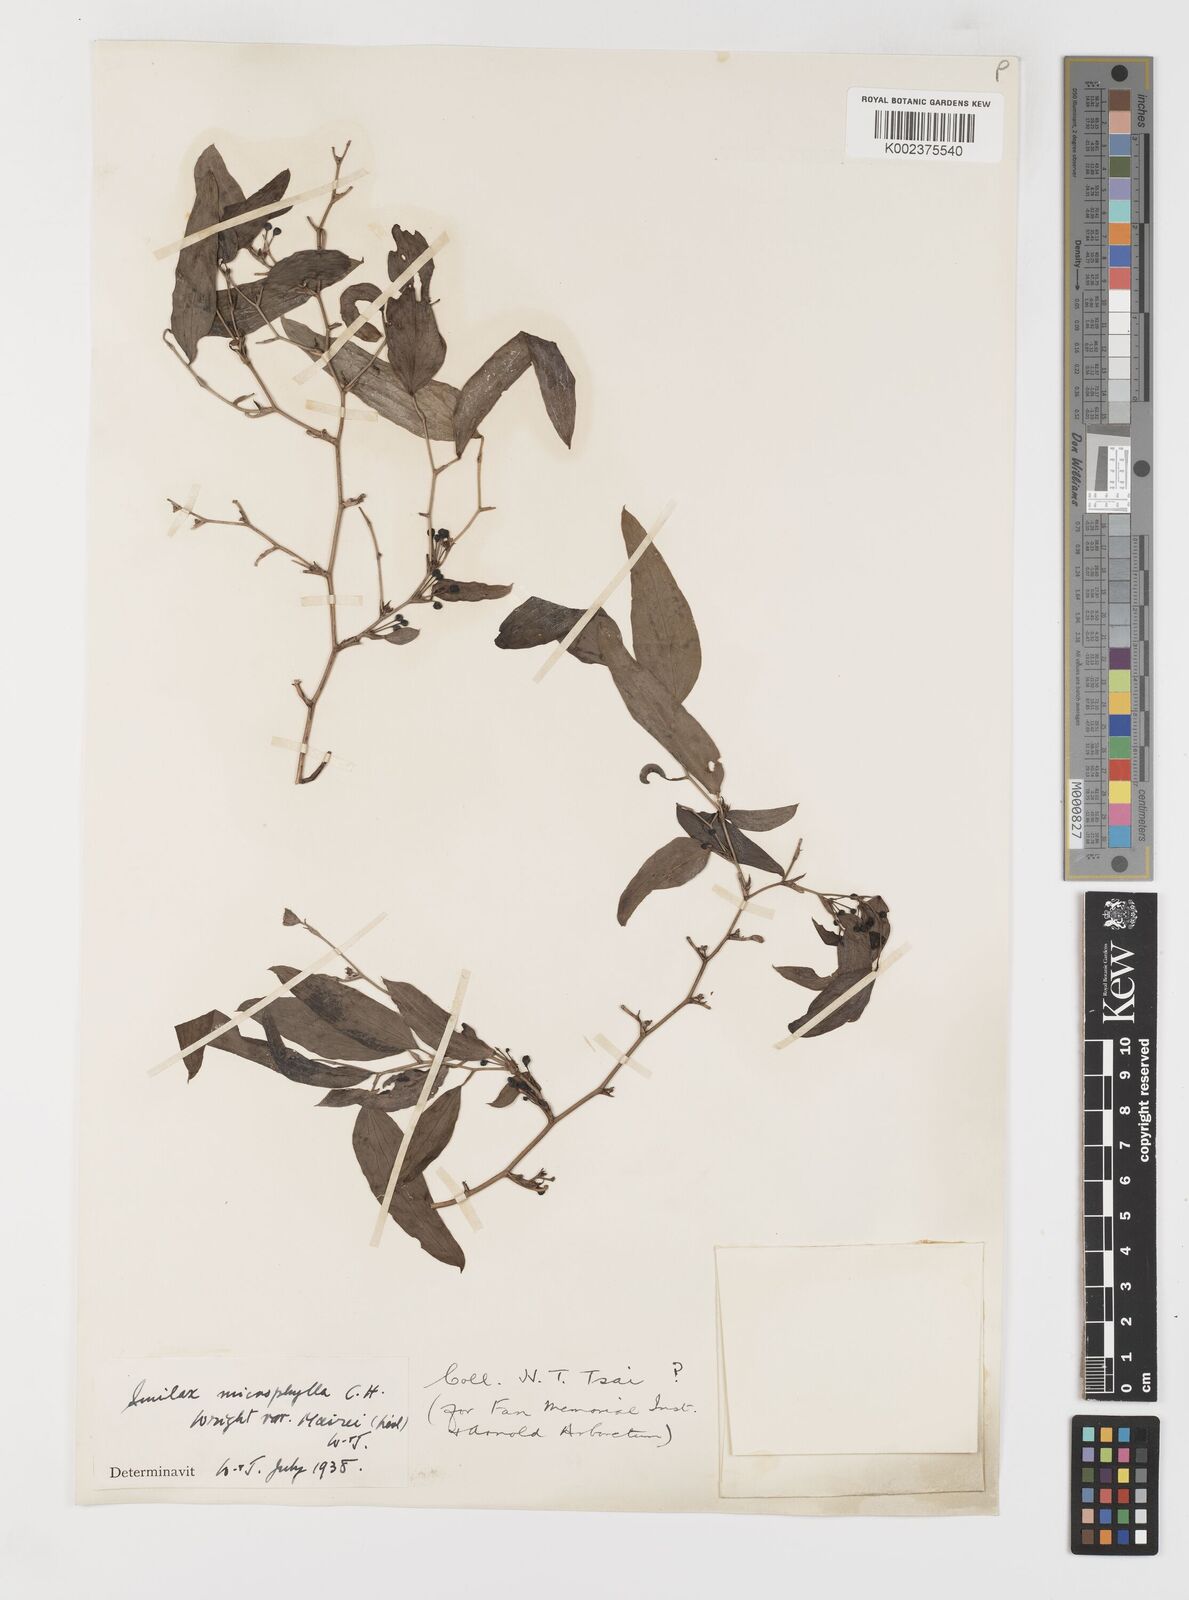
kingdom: Plantae
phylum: Tracheophyta
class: Liliopsida
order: Liliales
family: Smilacaceae
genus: Smilax
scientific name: Smilax microphylla
